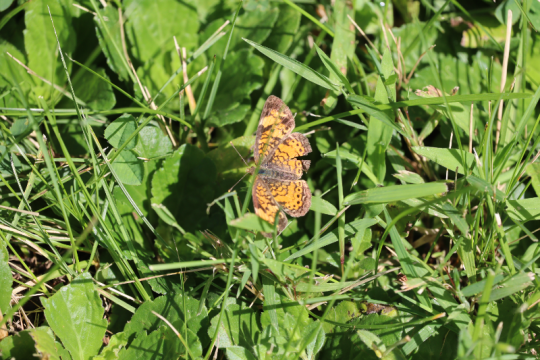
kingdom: Animalia
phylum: Arthropoda
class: Insecta
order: Lepidoptera
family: Nymphalidae
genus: Phyciodes
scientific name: Phyciodes
